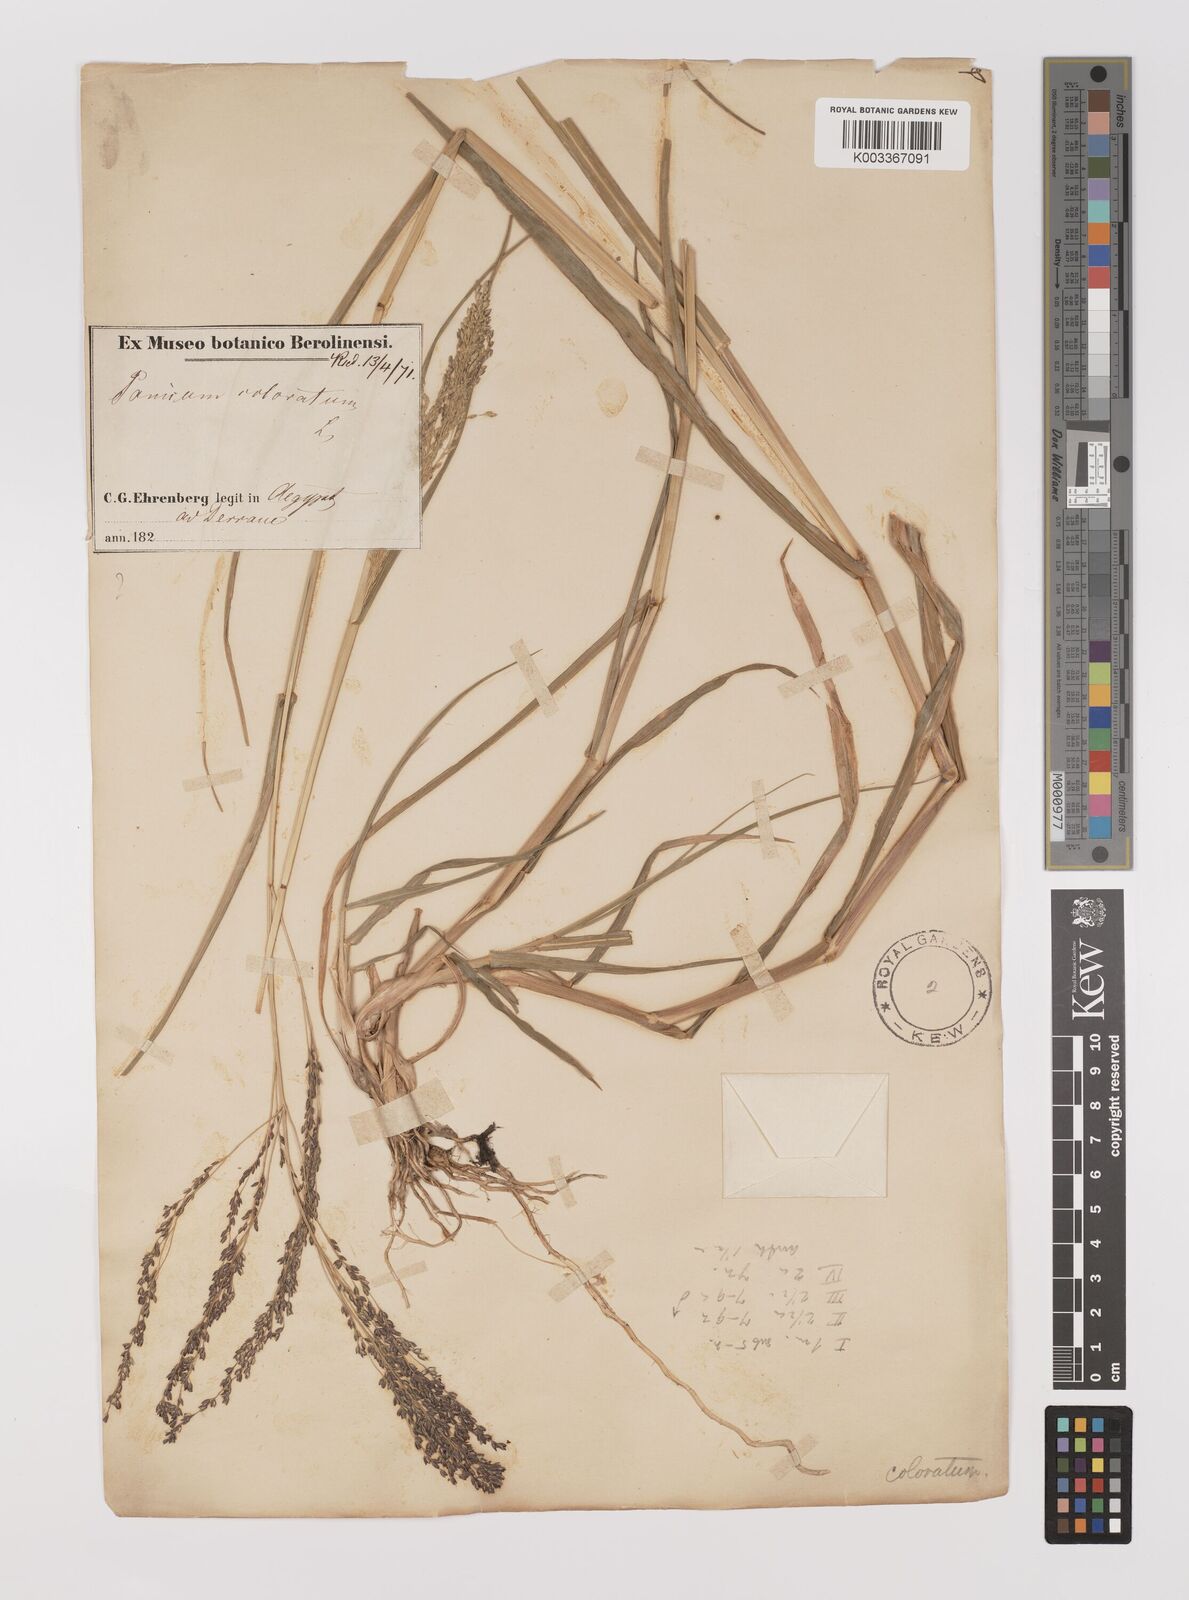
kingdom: Plantae
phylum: Tracheophyta
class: Liliopsida
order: Poales
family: Poaceae
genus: Panicum
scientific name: Panicum coloratum
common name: Kleingrass
